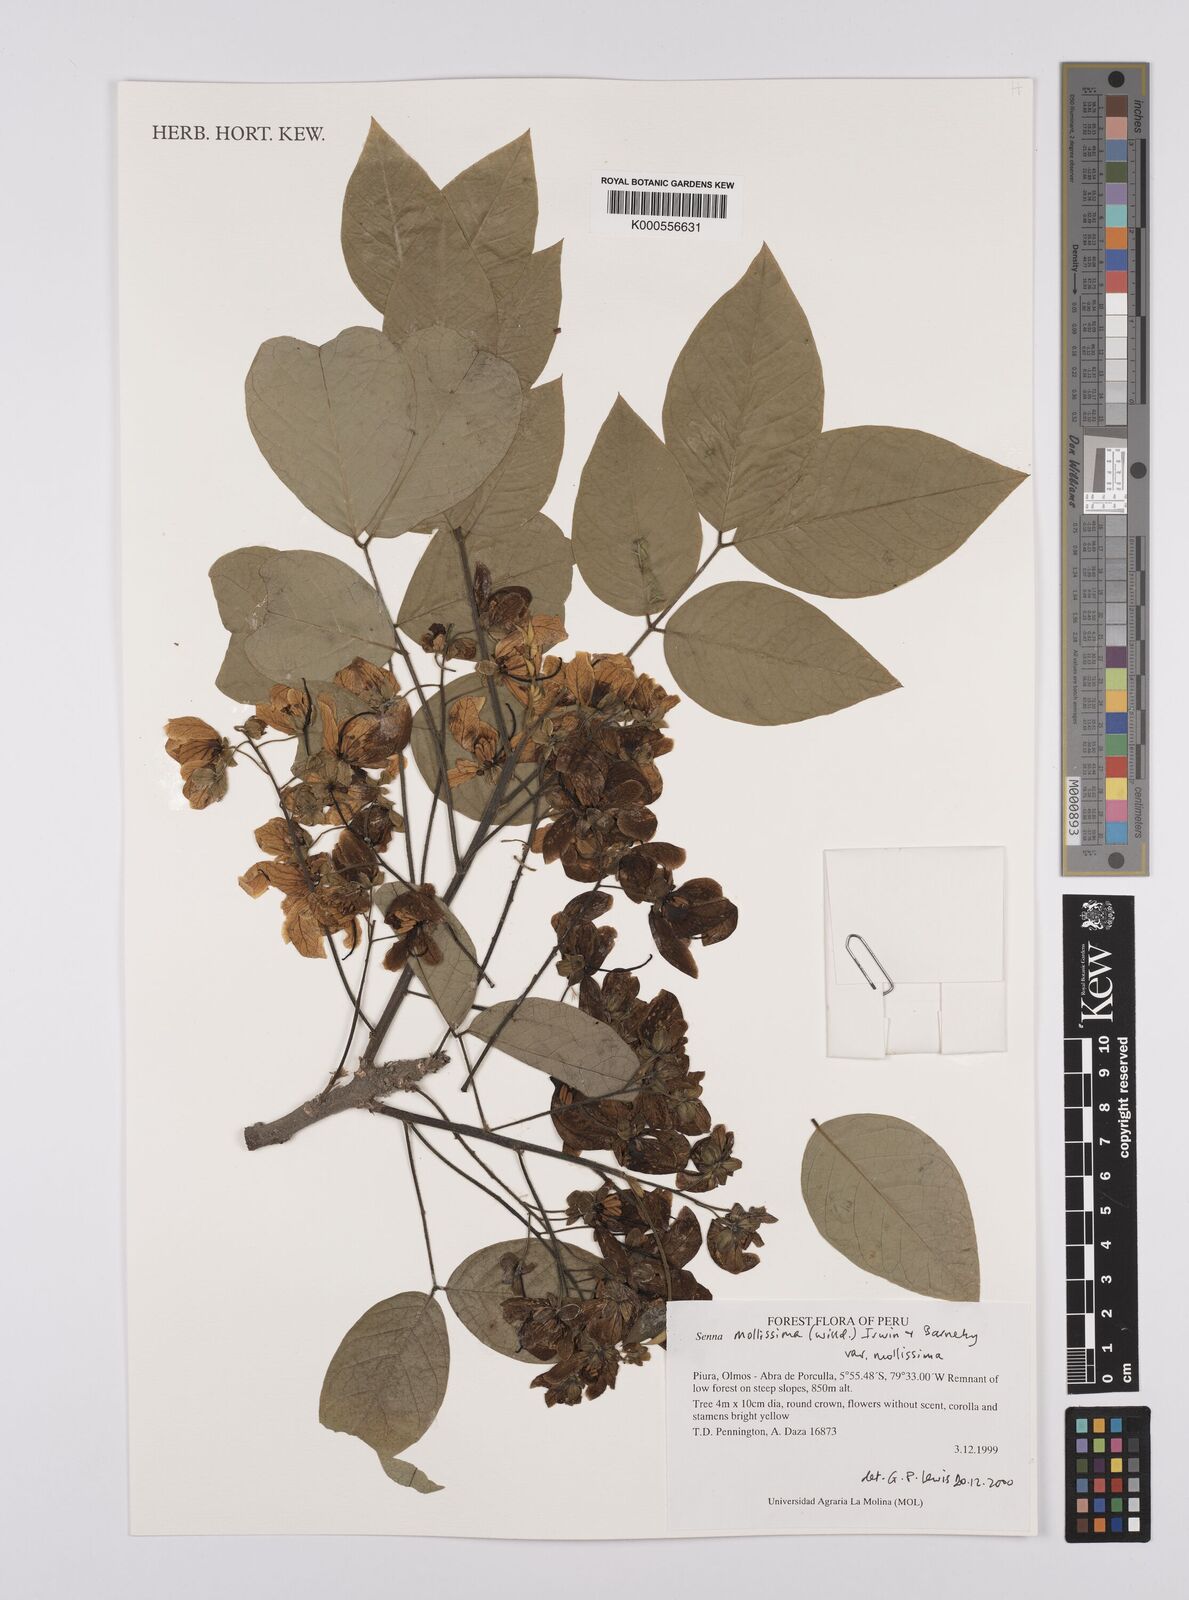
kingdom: Plantae
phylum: Tracheophyta
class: Magnoliopsida
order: Fabales
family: Fabaceae
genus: Senna
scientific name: Senna mollissima
